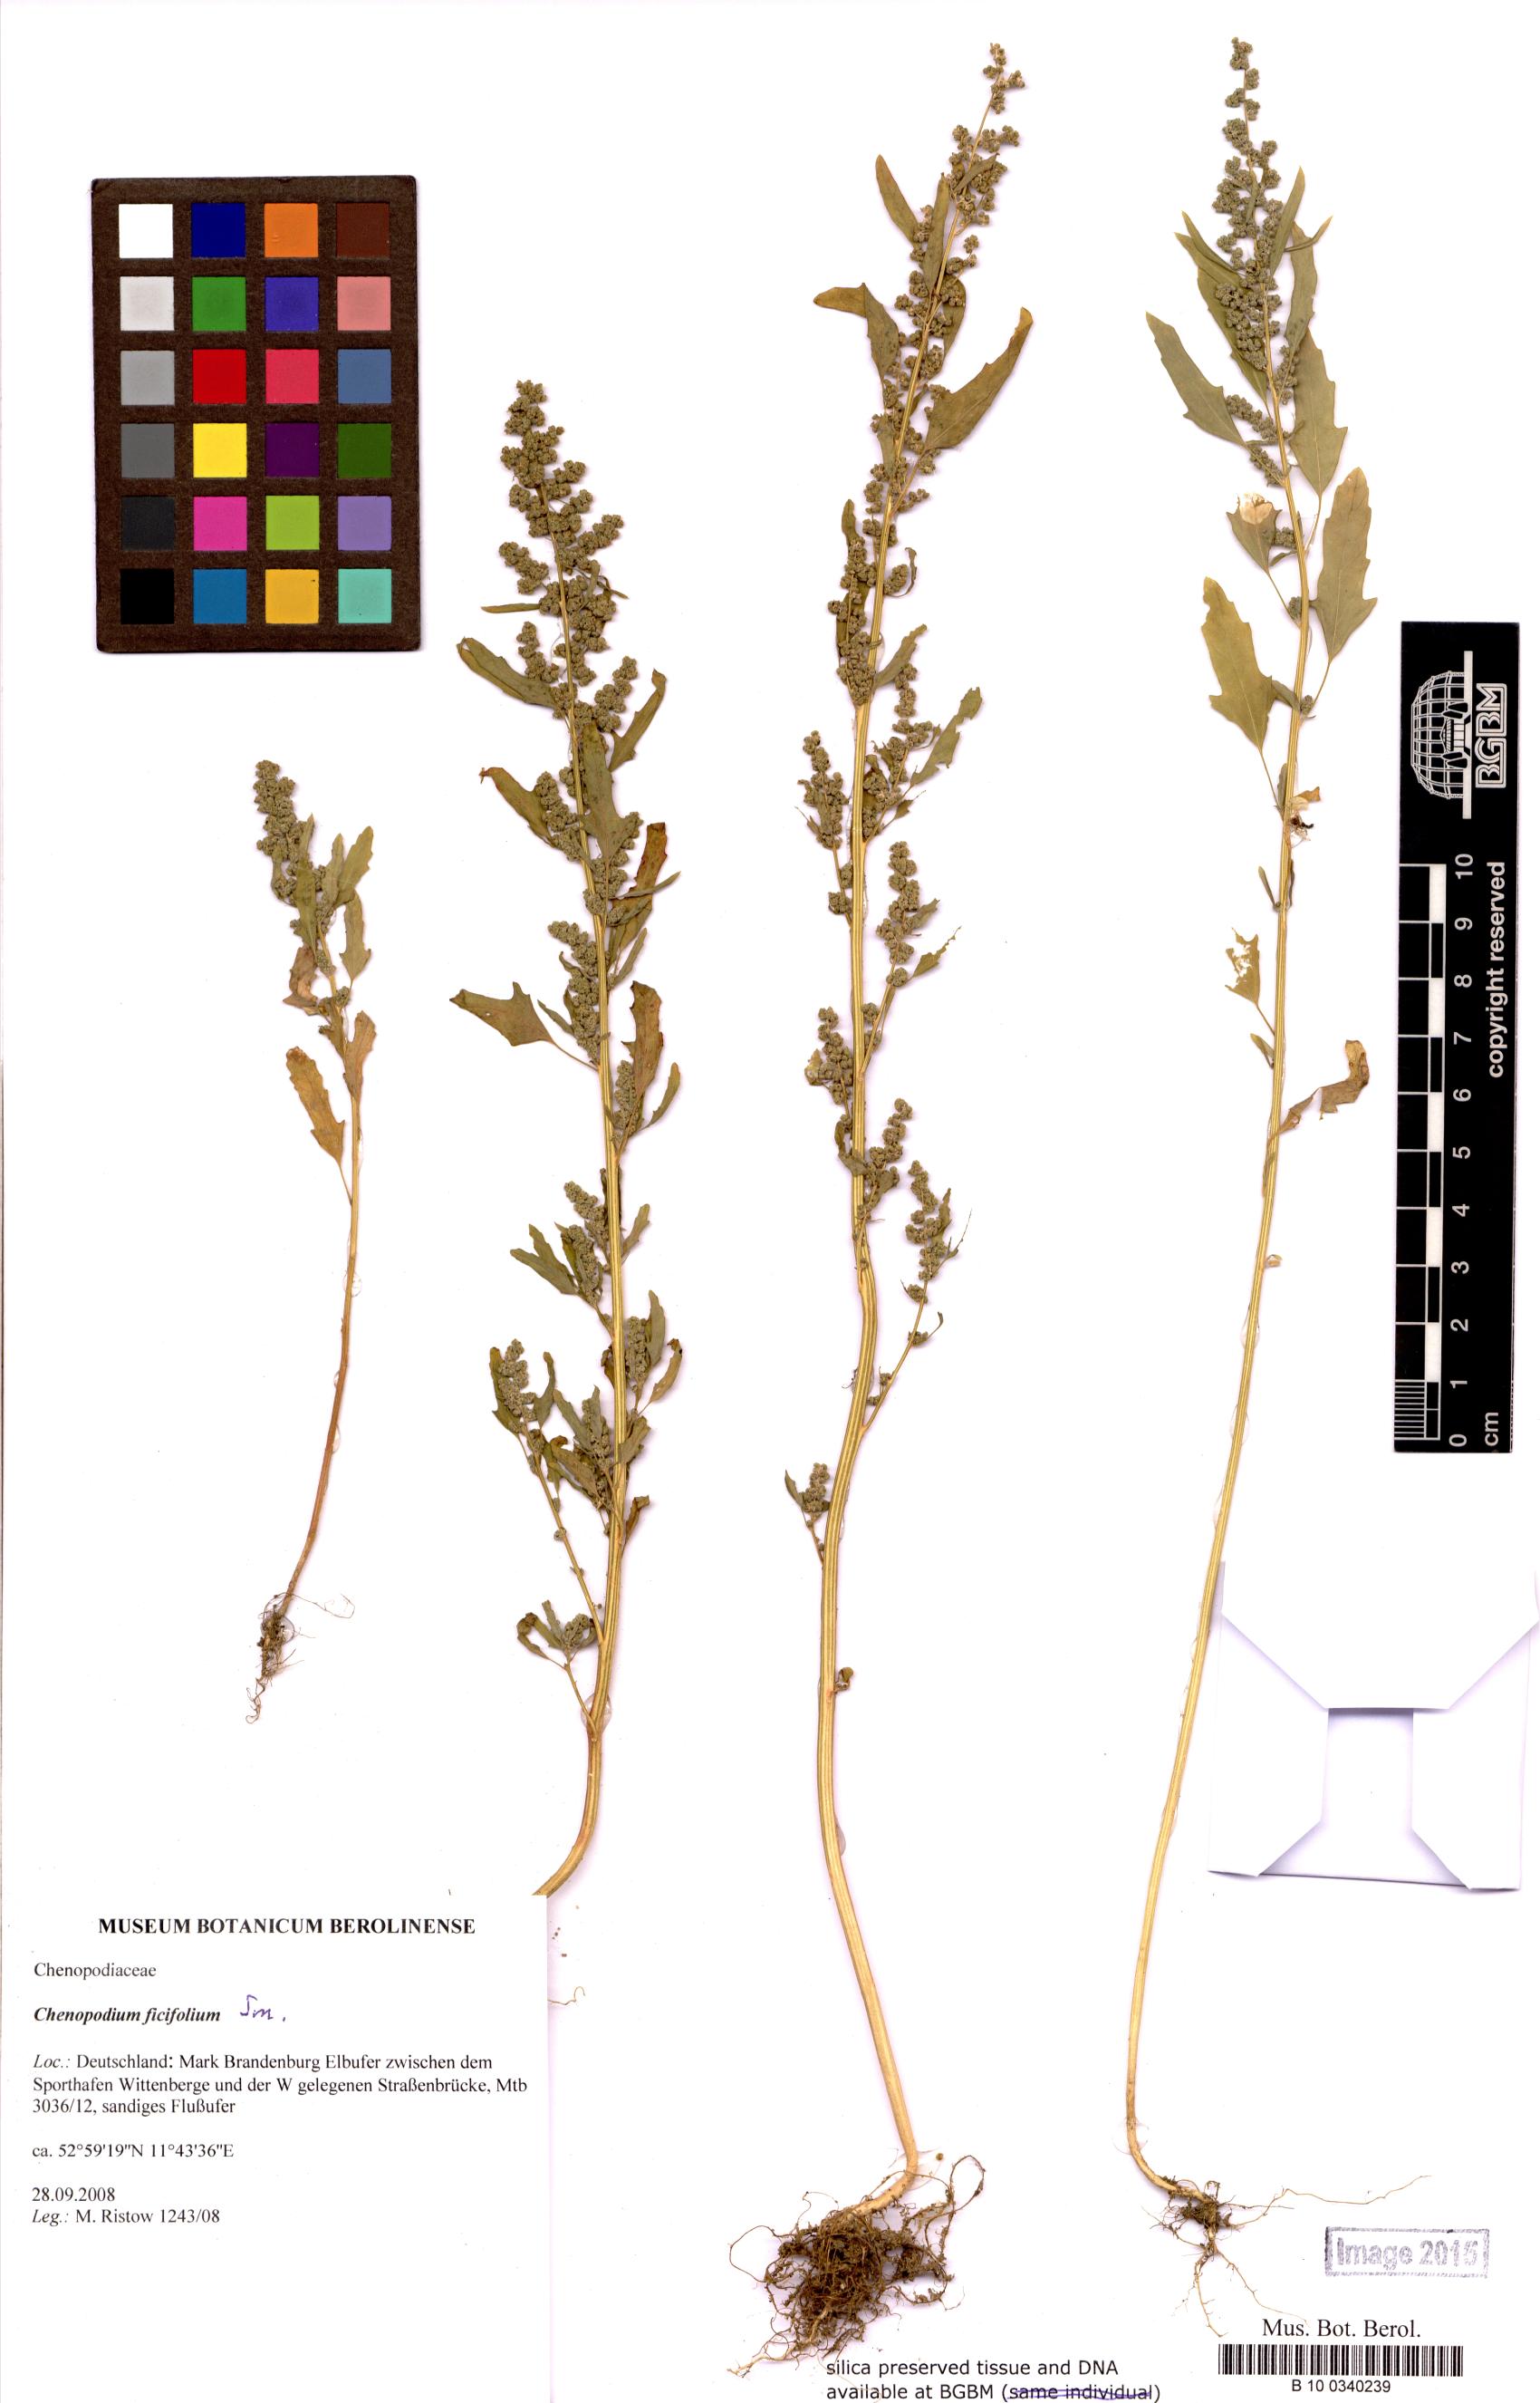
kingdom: Plantae
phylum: Tracheophyta
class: Magnoliopsida
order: Caryophyllales
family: Amaranthaceae
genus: Chenopodium
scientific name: Chenopodium ficifolium
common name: Fig-leaved goosefoot
